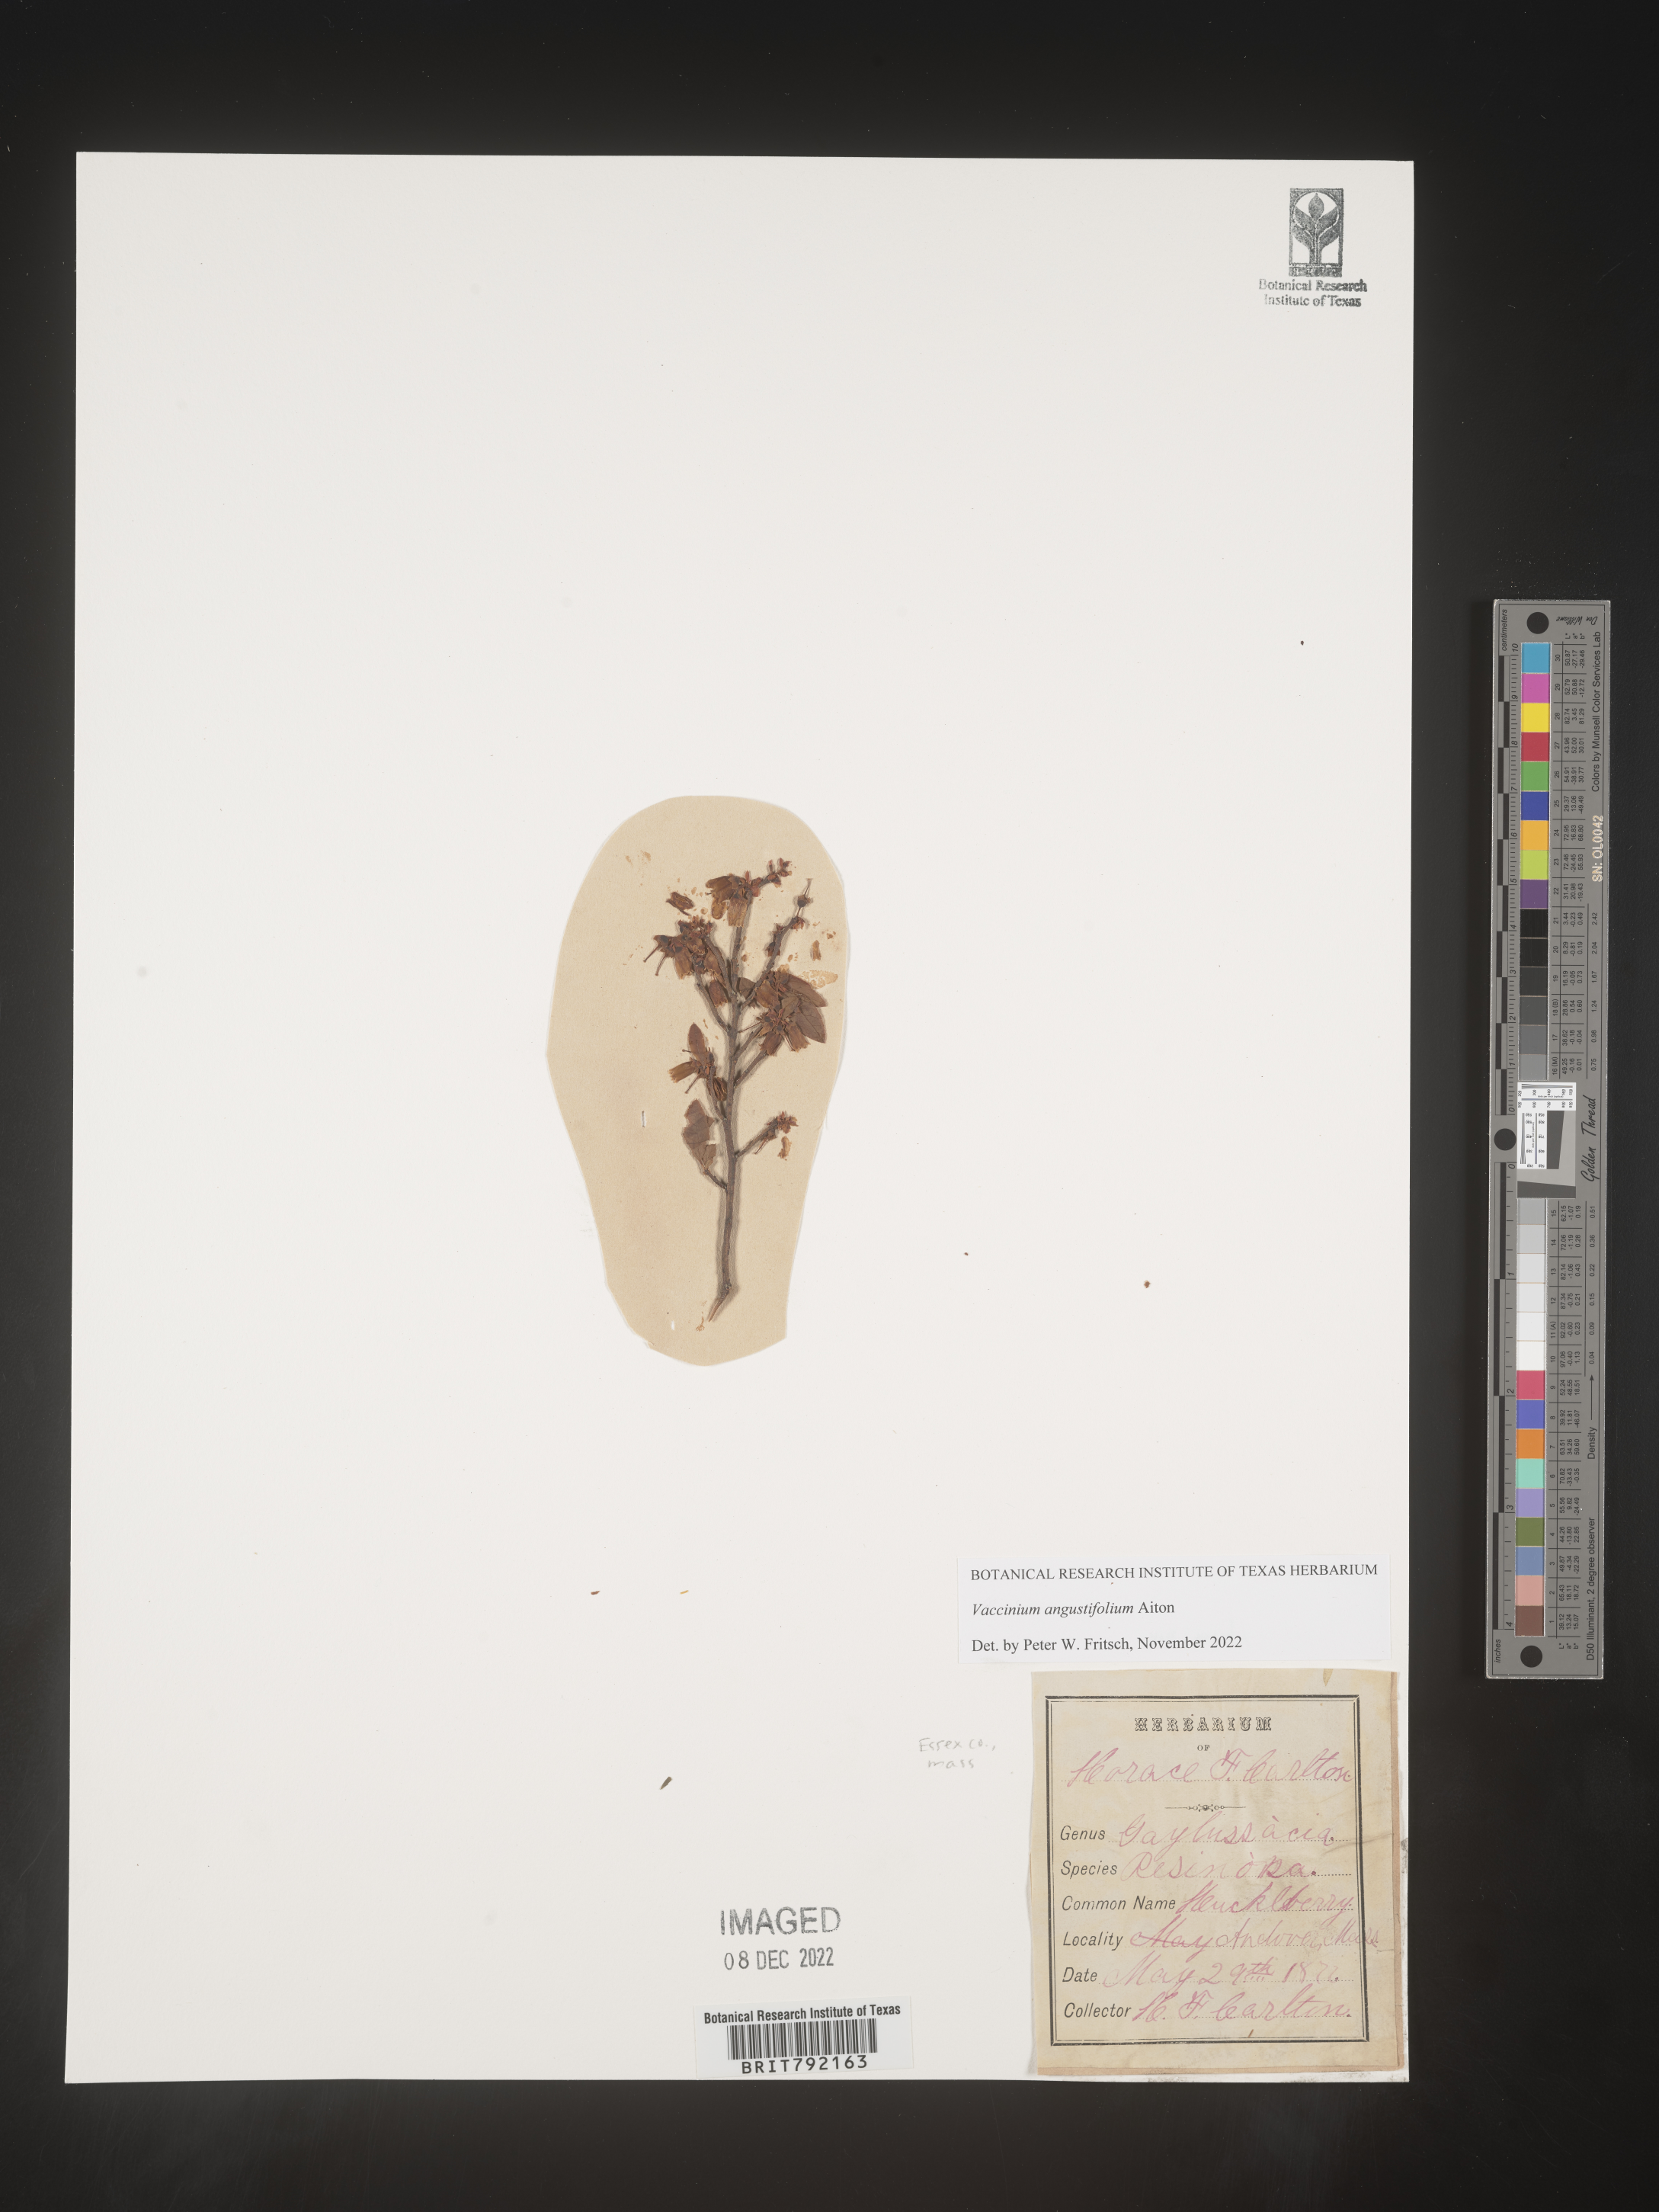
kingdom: Plantae
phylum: Tracheophyta
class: Magnoliopsida
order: Ericales
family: Ericaceae
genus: Vaccinium
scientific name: Vaccinium angustifolium
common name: Early lowbush blueberry
